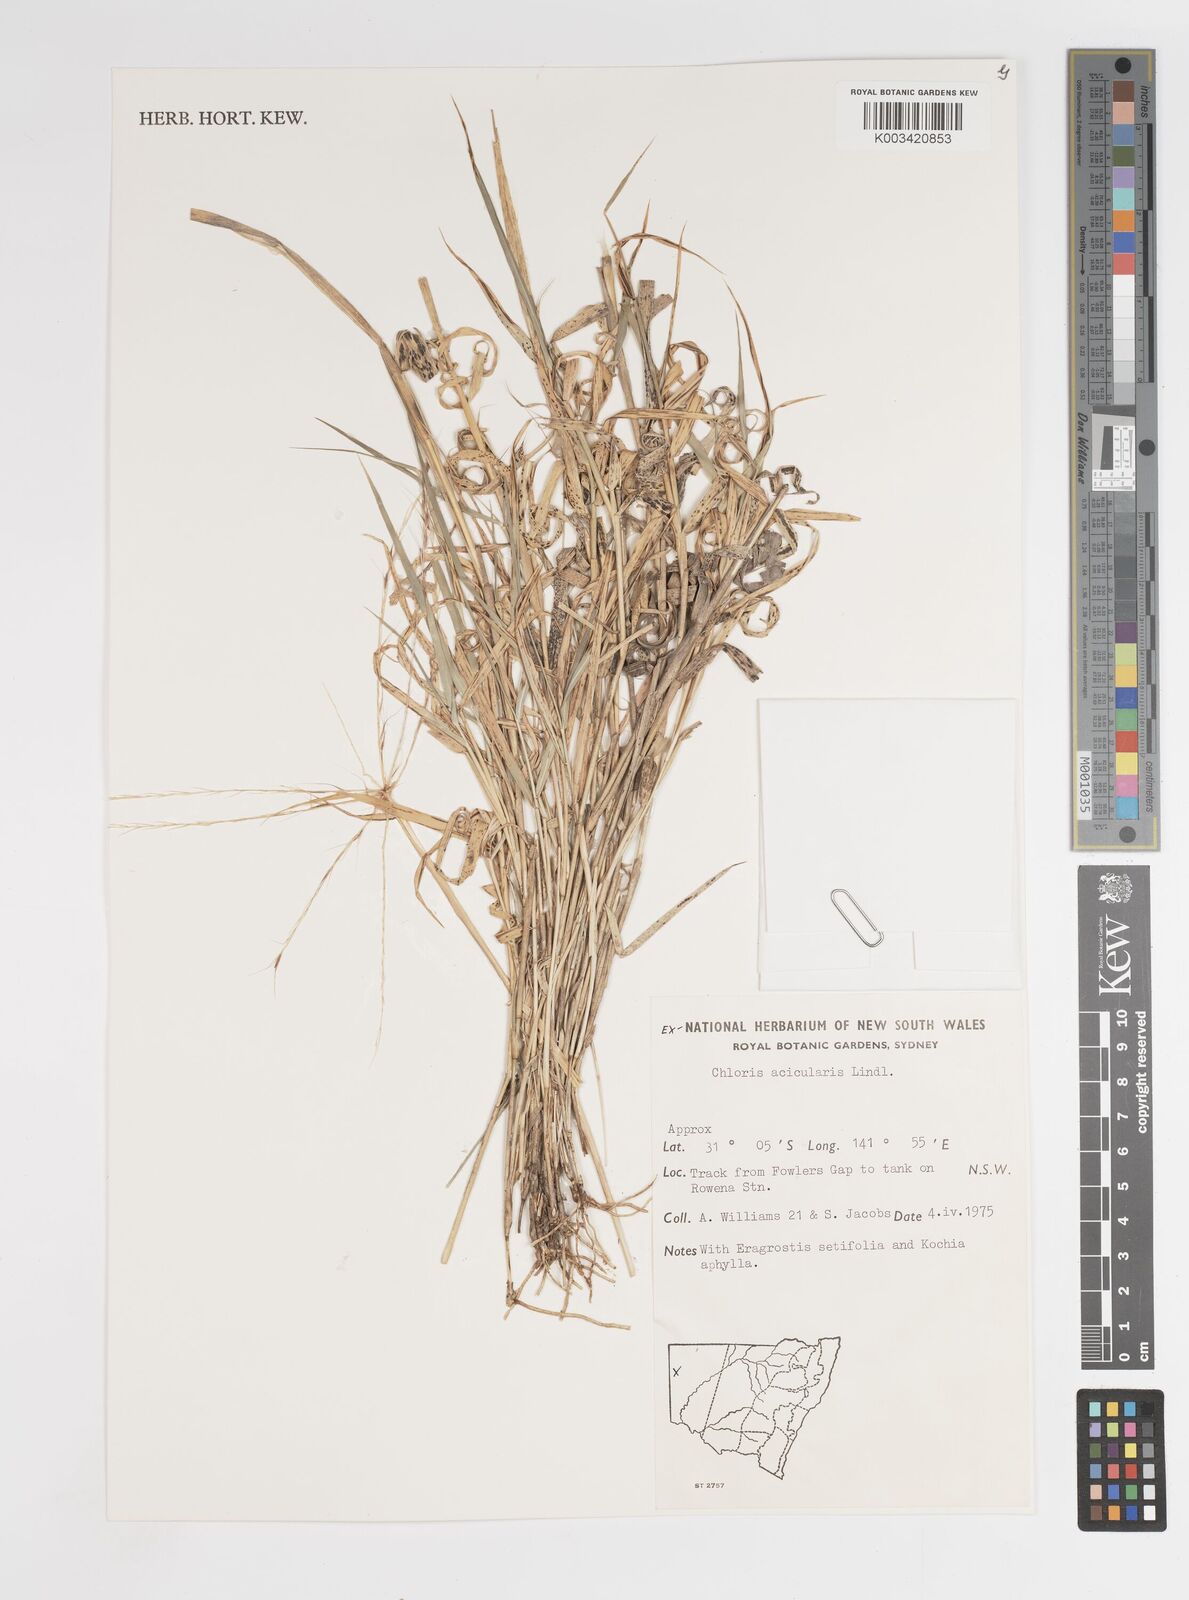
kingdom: Plantae
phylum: Tracheophyta
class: Liliopsida
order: Poales
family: Poaceae
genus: Enteropogon
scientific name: Enteropogon acicularis
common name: Curly windmill grass
